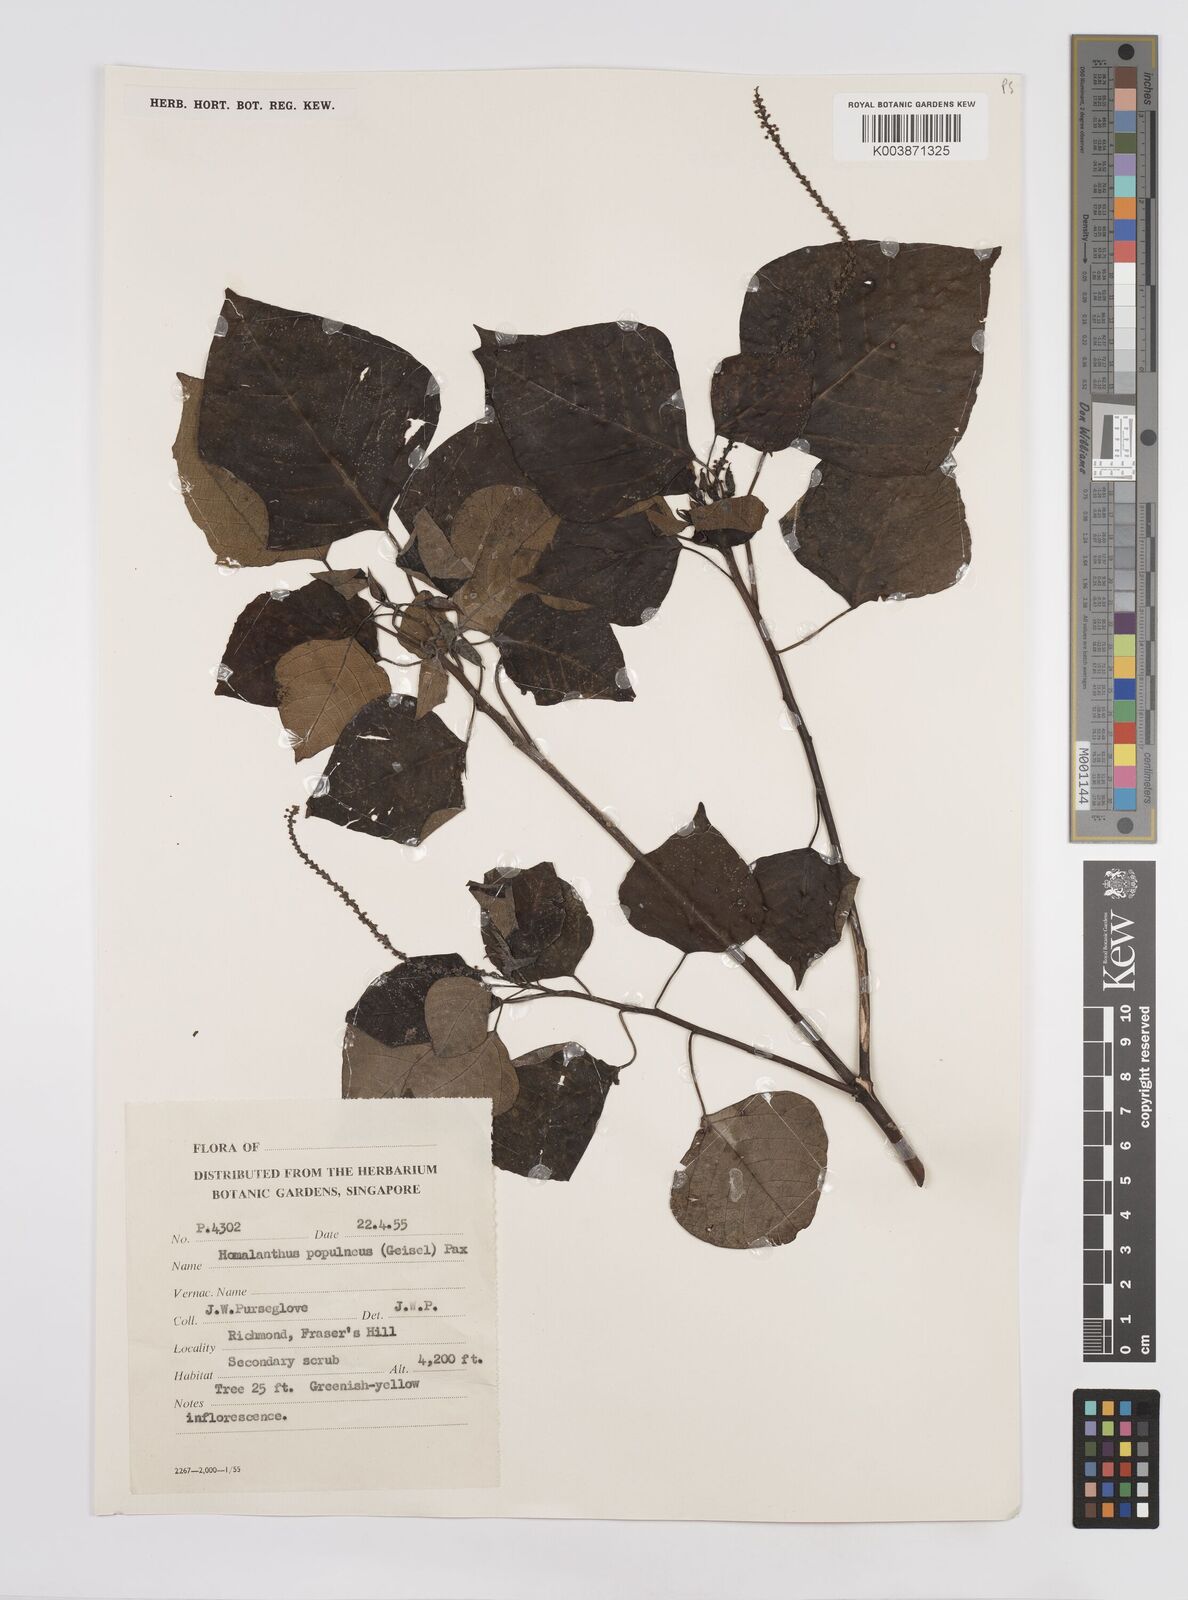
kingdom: Plantae
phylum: Tracheophyta
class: Magnoliopsida
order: Malpighiales
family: Euphorbiaceae
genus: Homalanthus
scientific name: Homalanthus populneus
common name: Spurge
